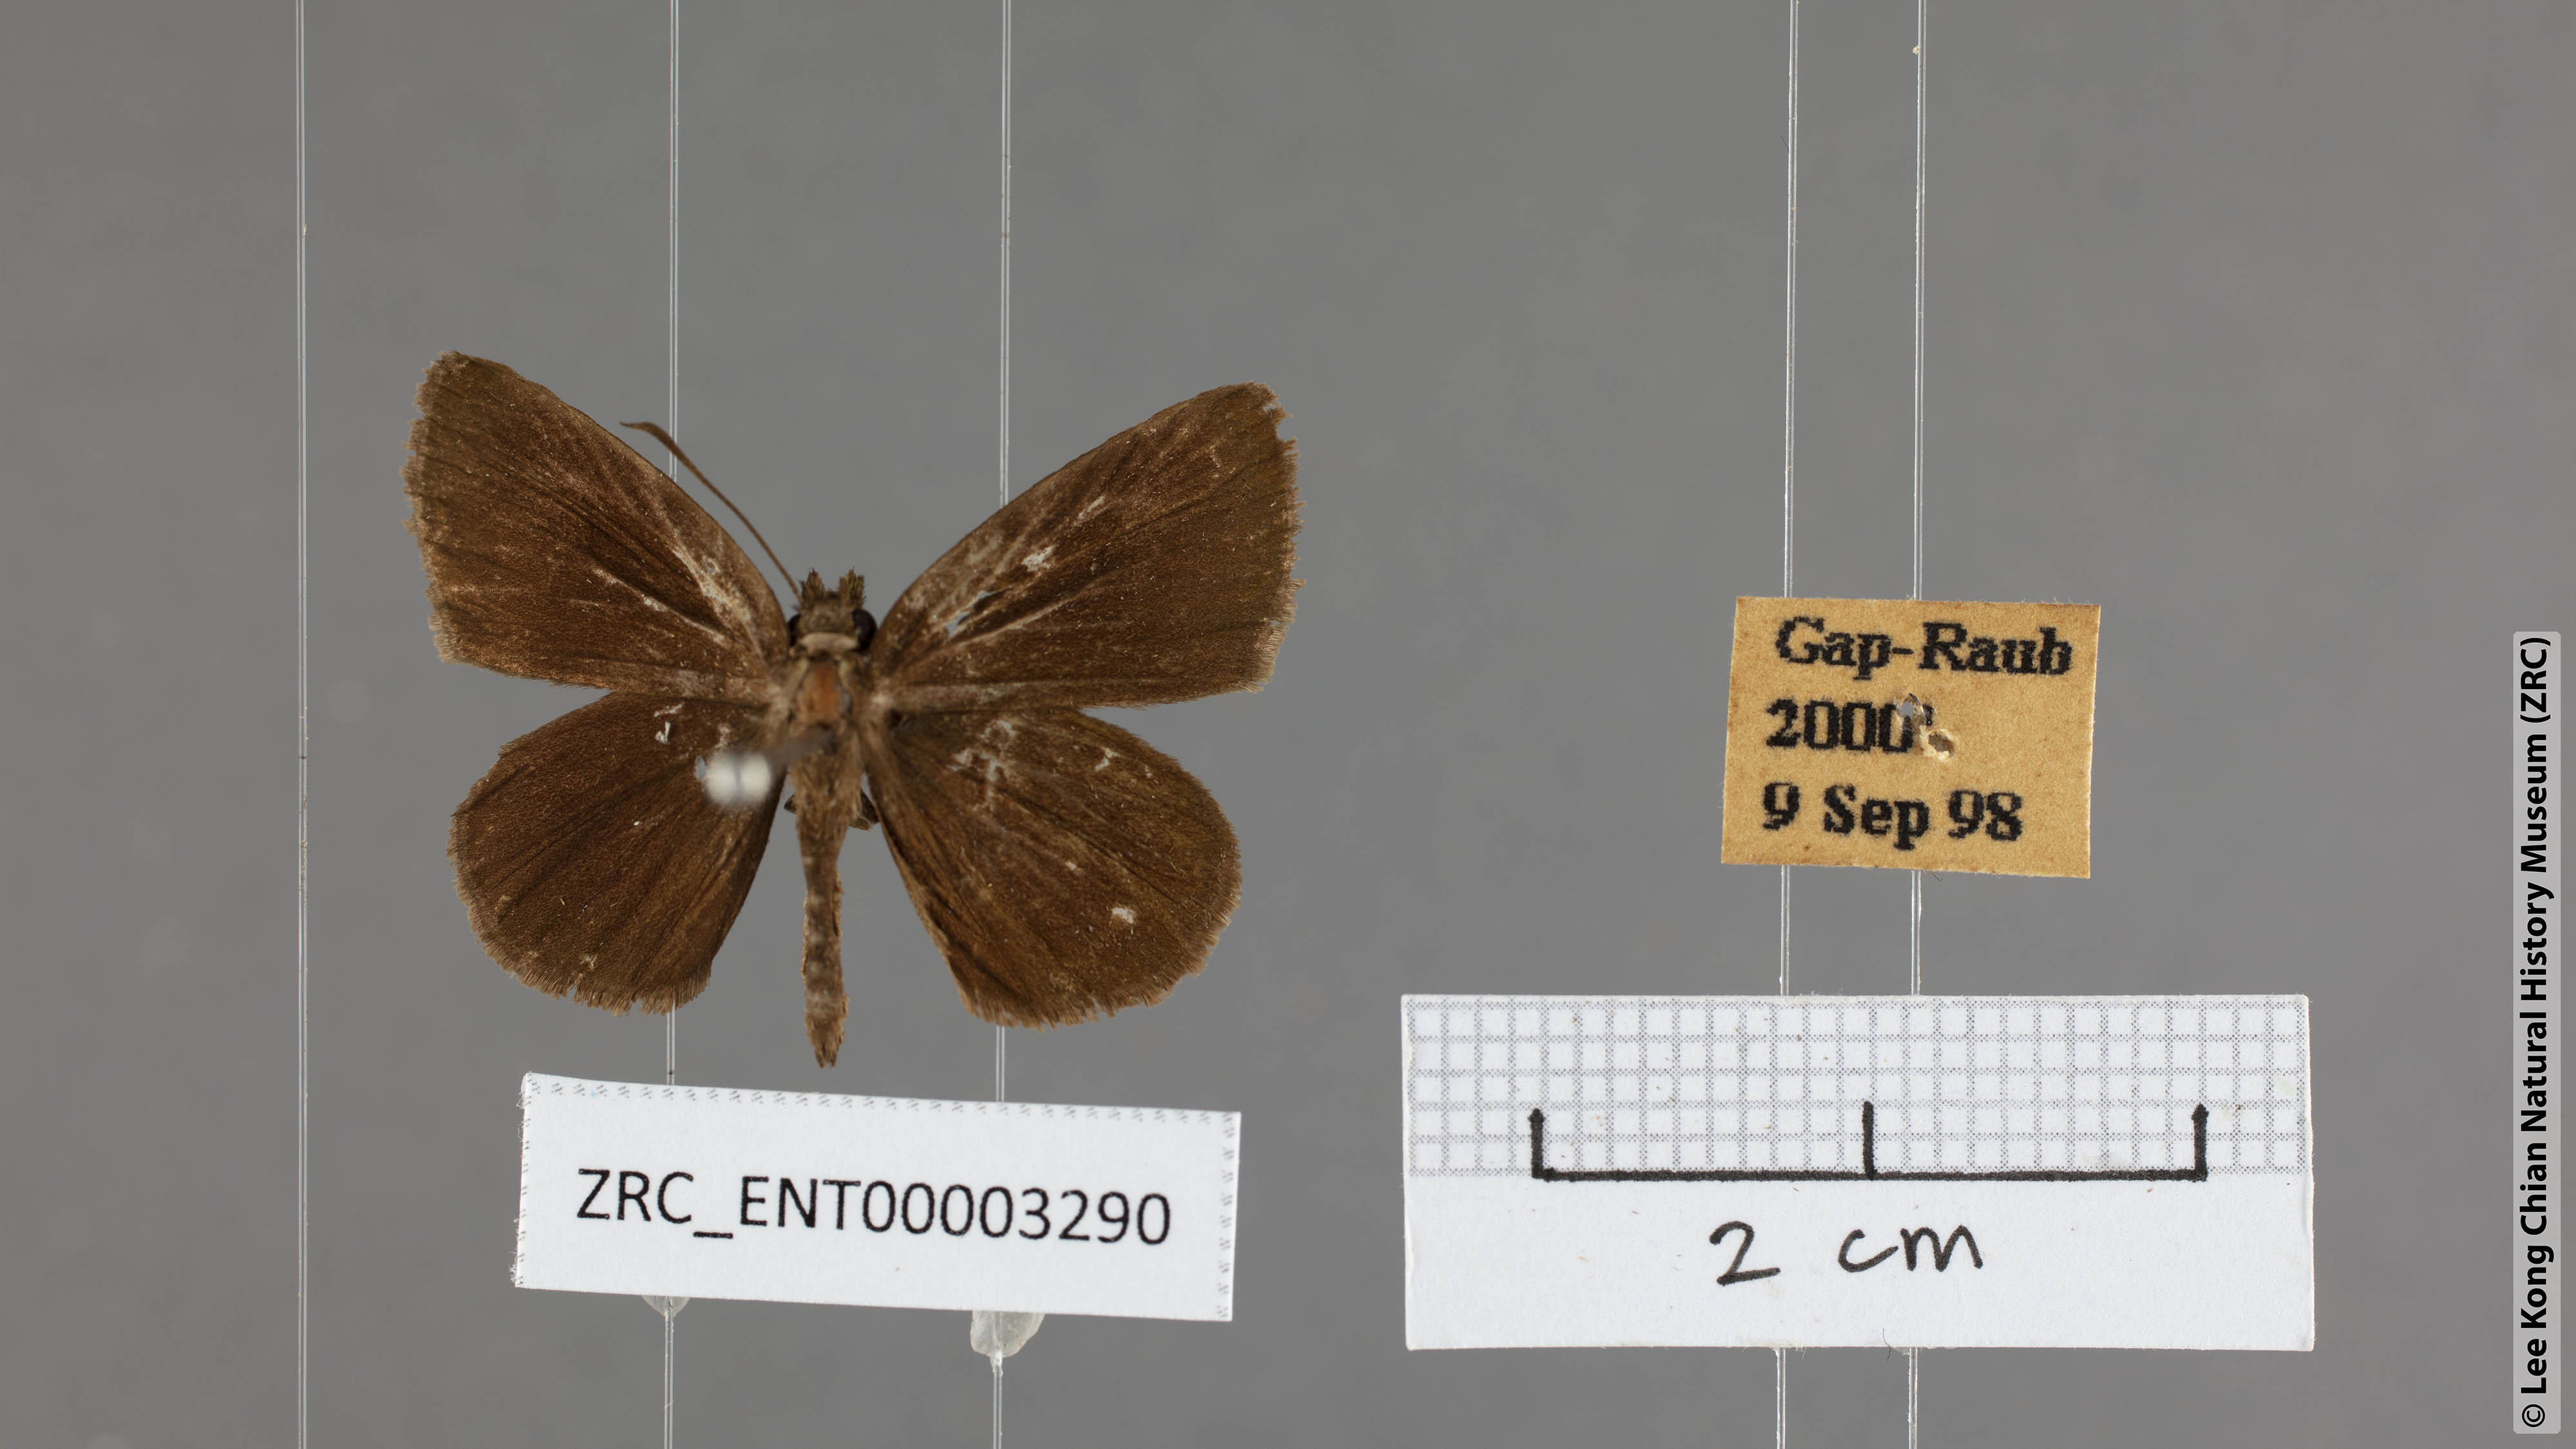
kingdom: Animalia
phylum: Arthropoda
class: Insecta
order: Lepidoptera
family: Hesperiidae
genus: Iambrix
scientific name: Iambrix
